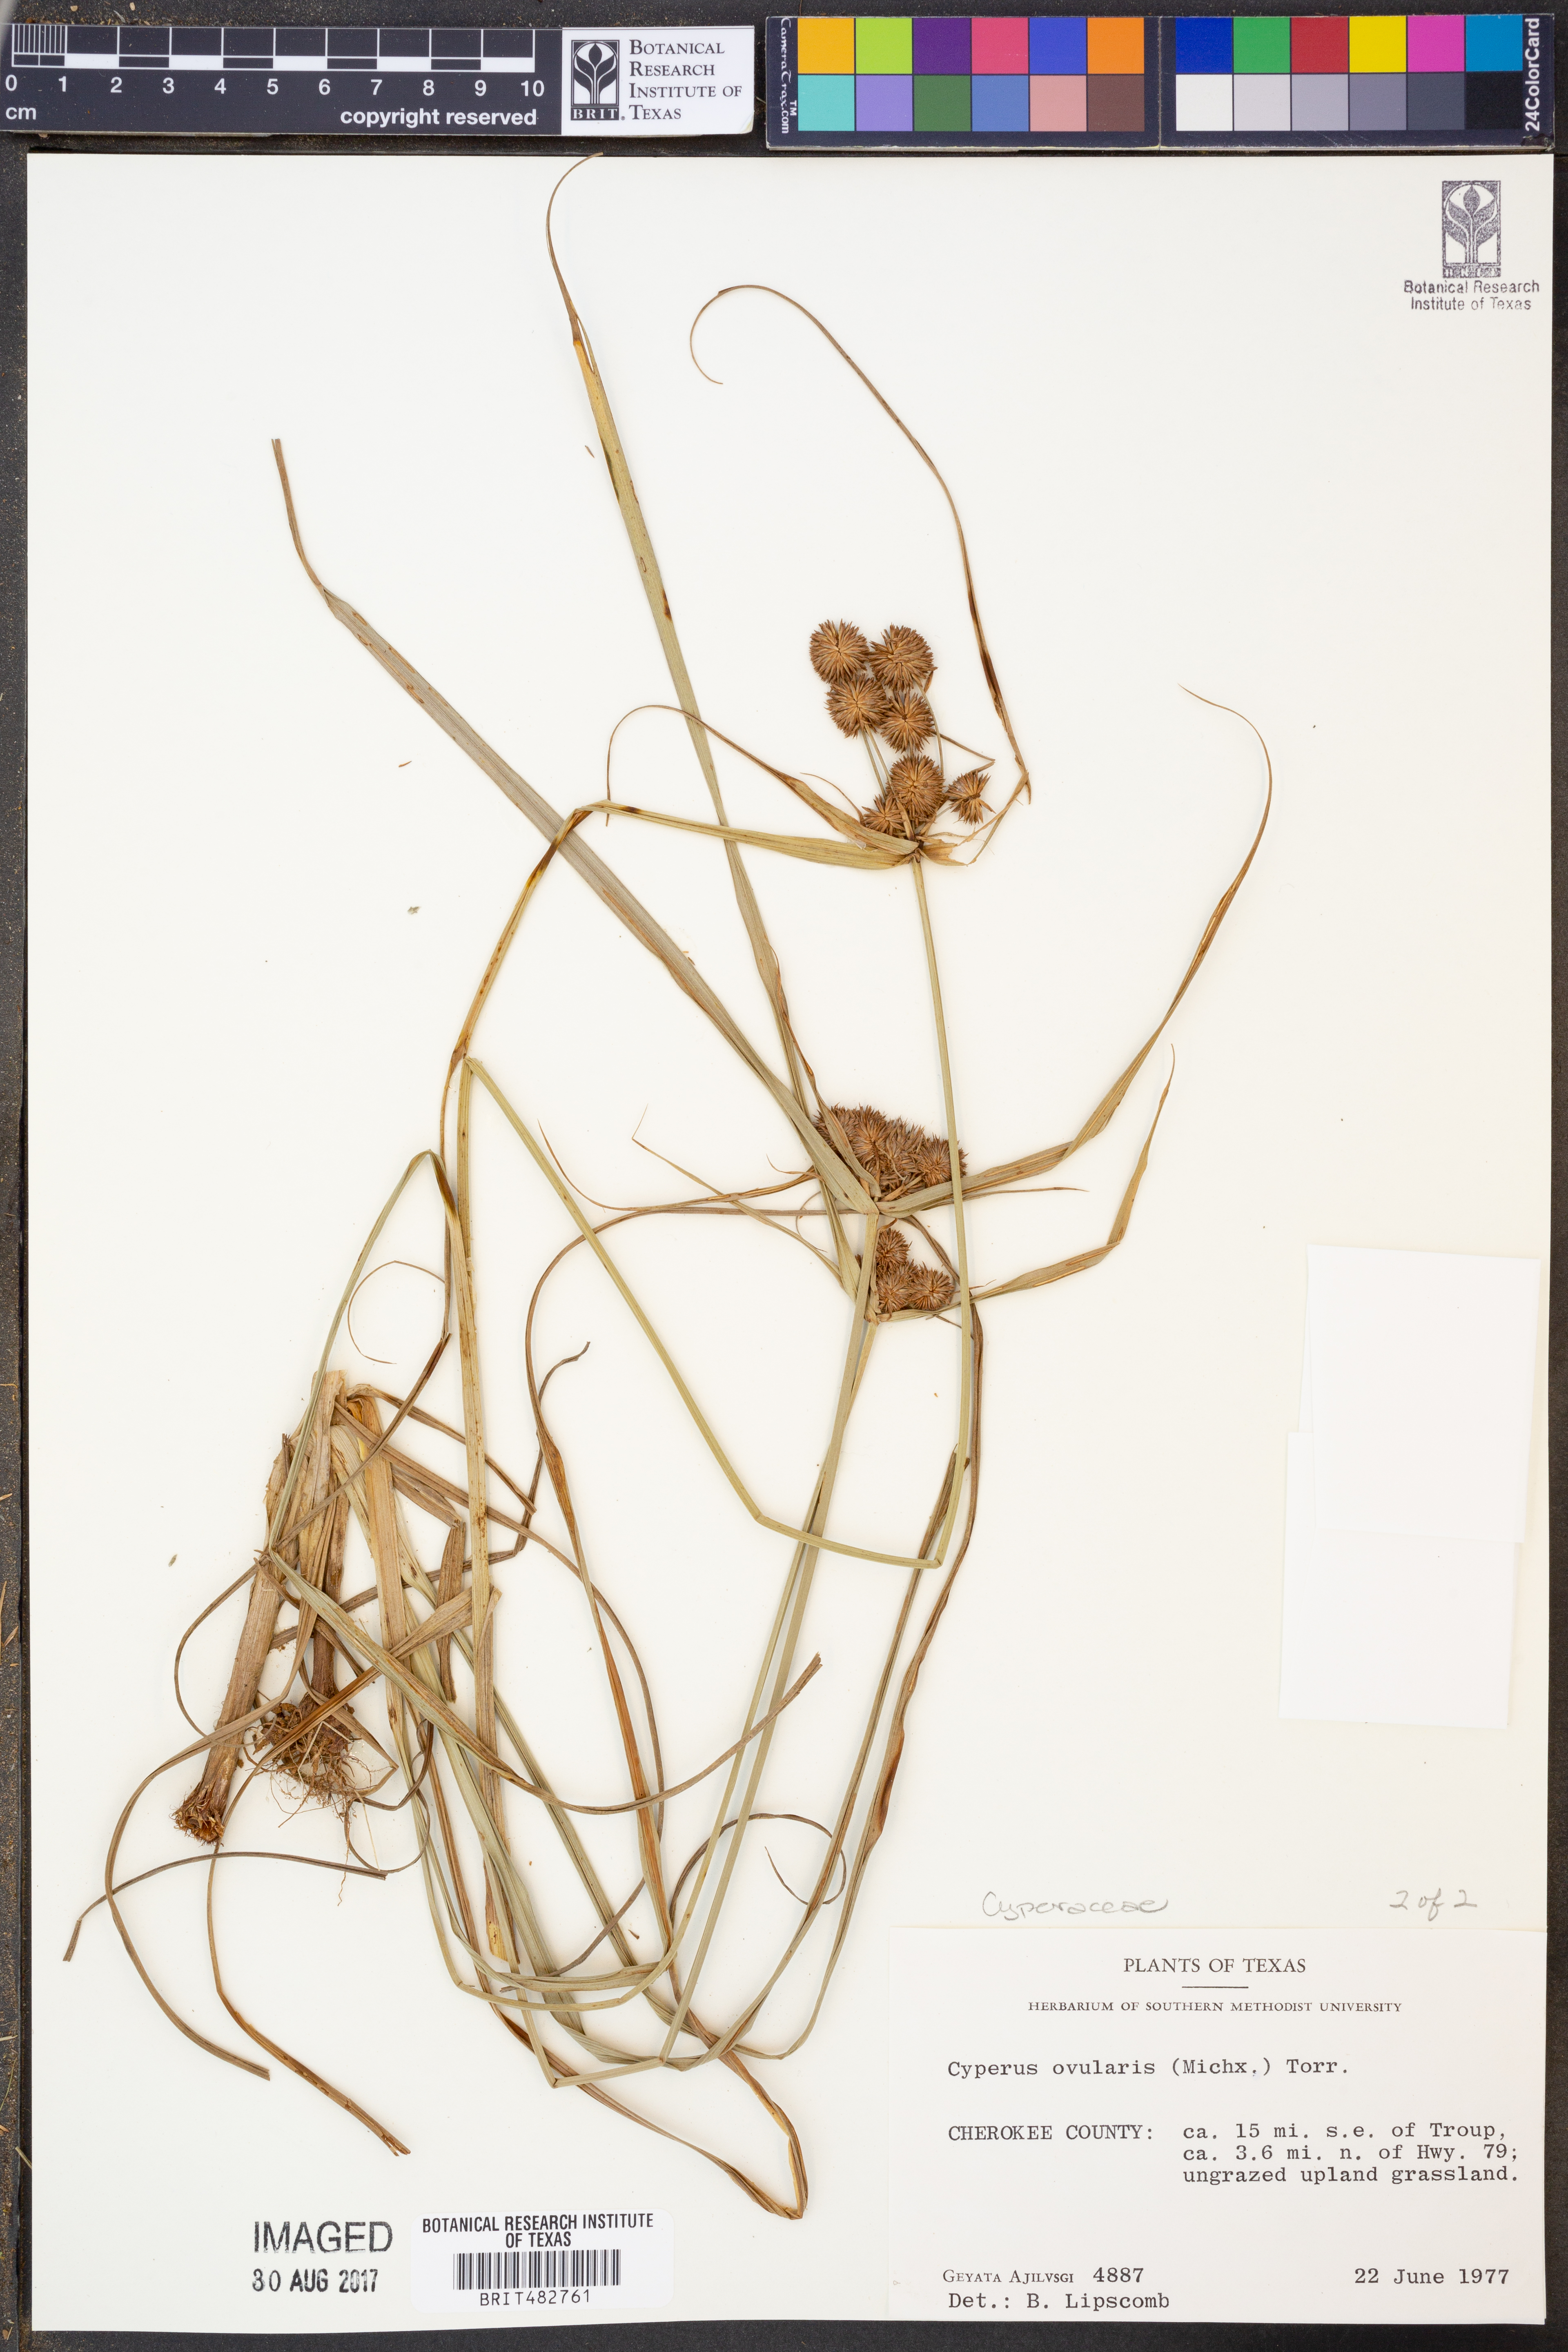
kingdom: Plantae
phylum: Tracheophyta
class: Liliopsida
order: Poales
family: Cyperaceae
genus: Cyperus
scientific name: Cyperus echinatus
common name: Teasel sedge
